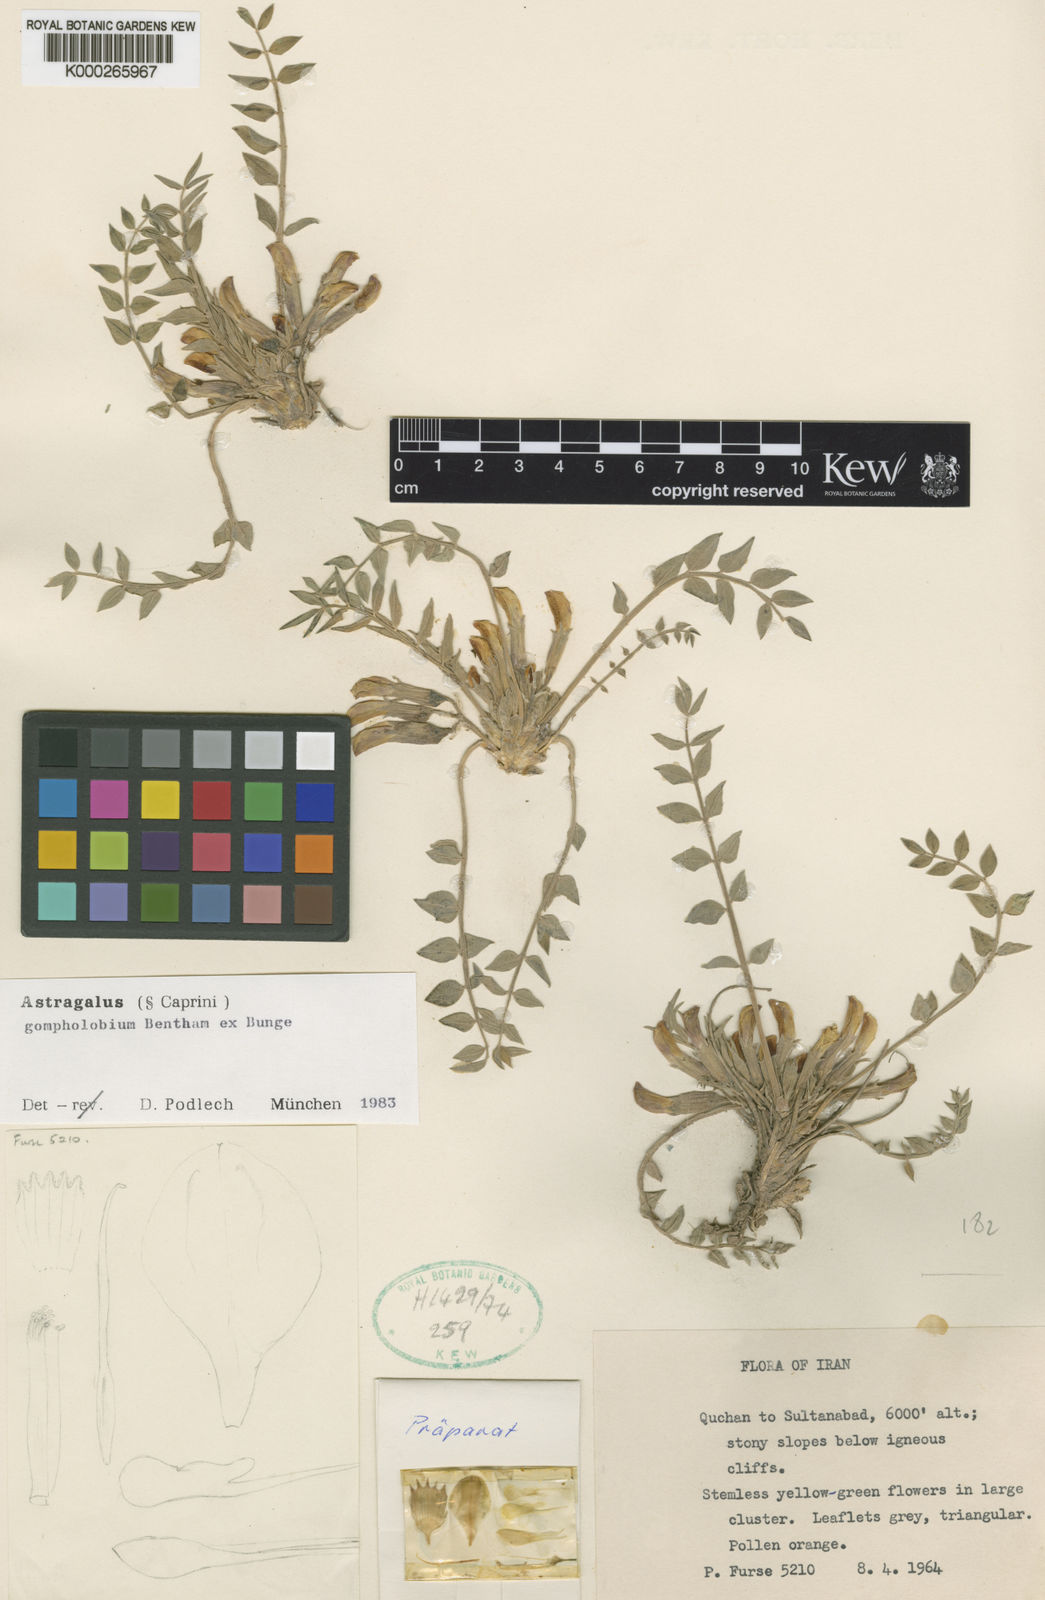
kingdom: Plantae
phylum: Tracheophyta
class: Magnoliopsida
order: Fabales
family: Fabaceae
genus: Astragalus
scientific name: Astragalus gompholobium
